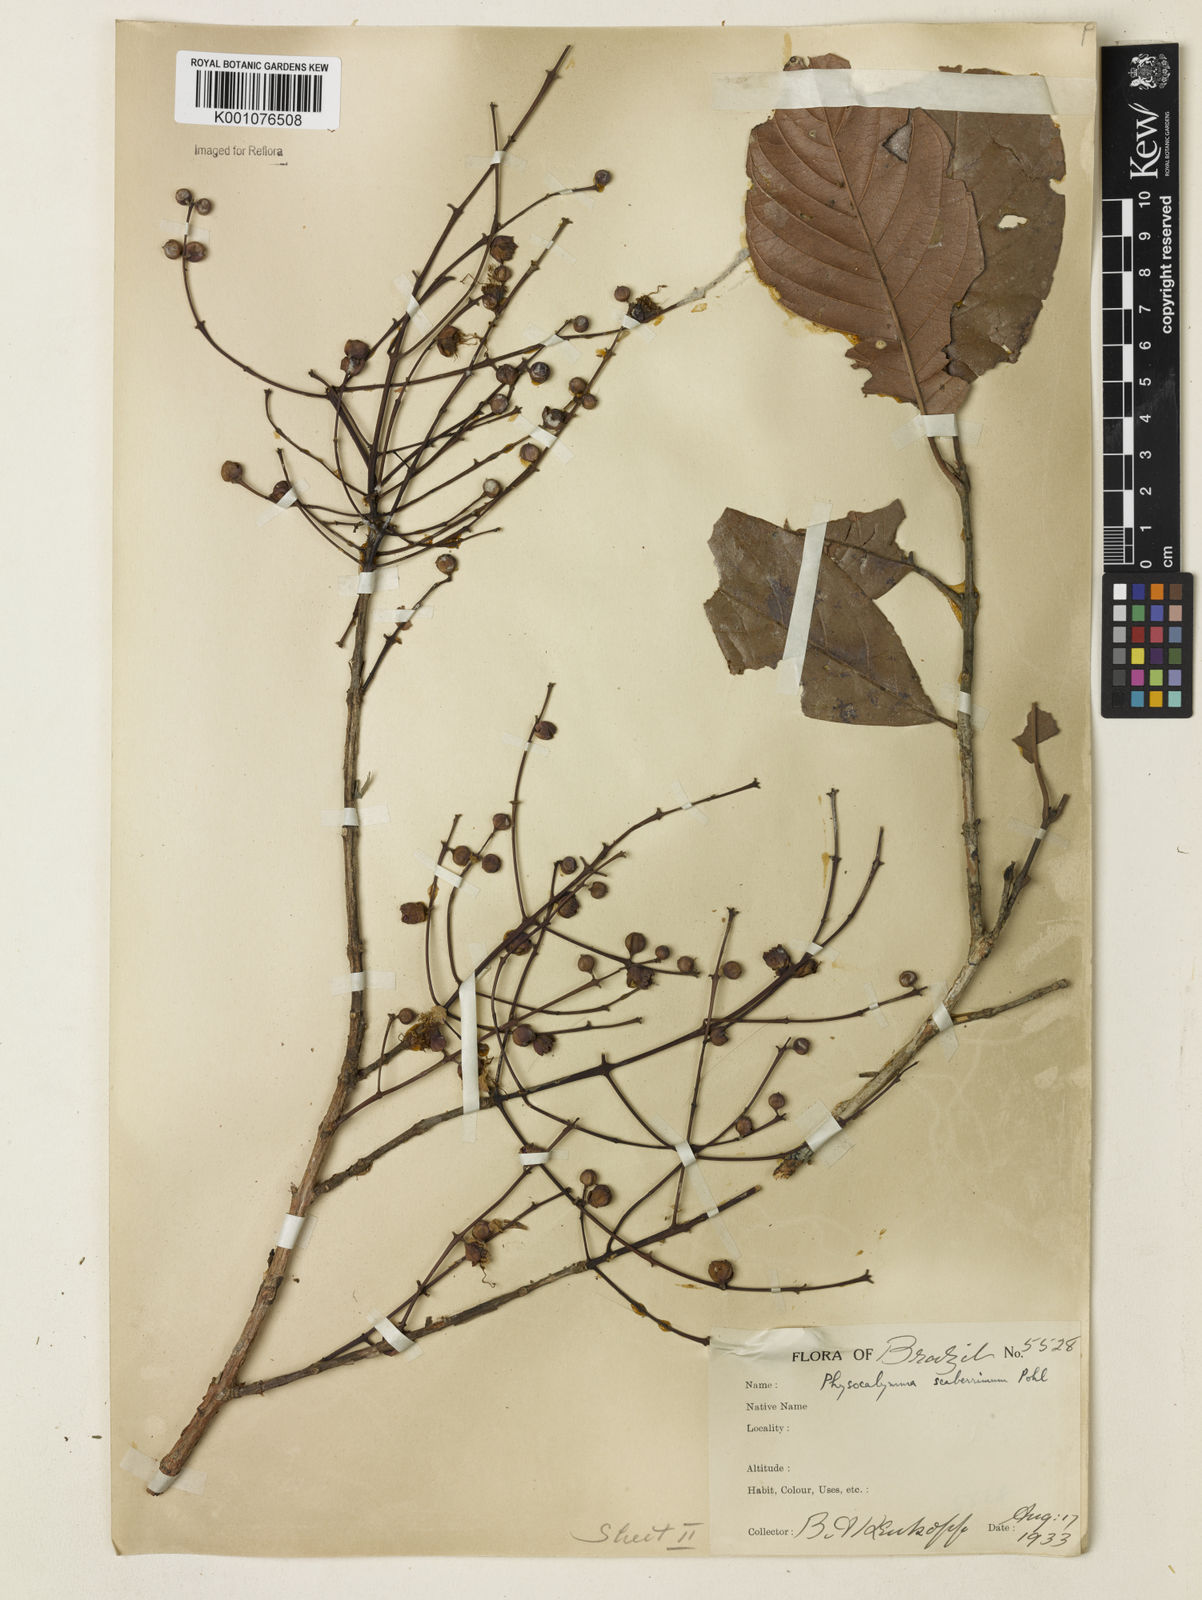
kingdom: Plantae
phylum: Tracheophyta
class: Magnoliopsida
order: Myrtales
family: Lythraceae
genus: Physocalymma
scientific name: Physocalymma scaberrimum
